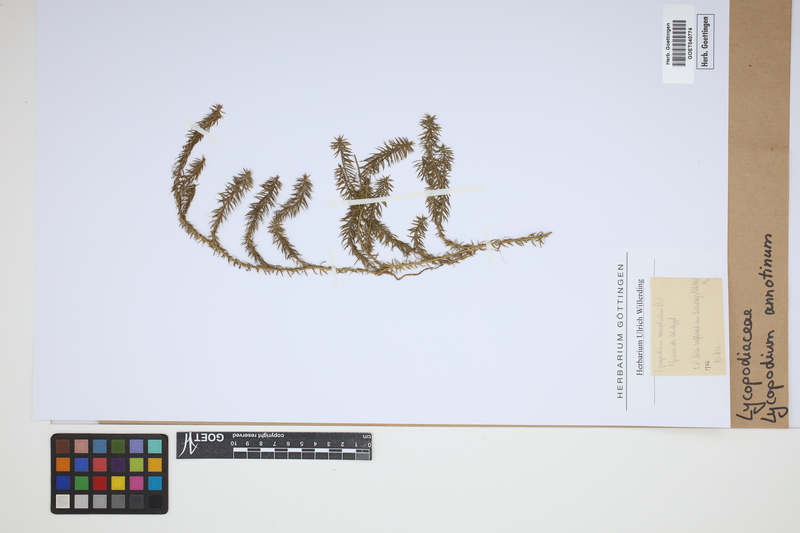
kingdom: Plantae
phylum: Tracheophyta
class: Lycopodiopsida
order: Lycopodiales
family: Lycopodiaceae
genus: Spinulum
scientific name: Spinulum annotinum
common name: Interrupted club-moss
